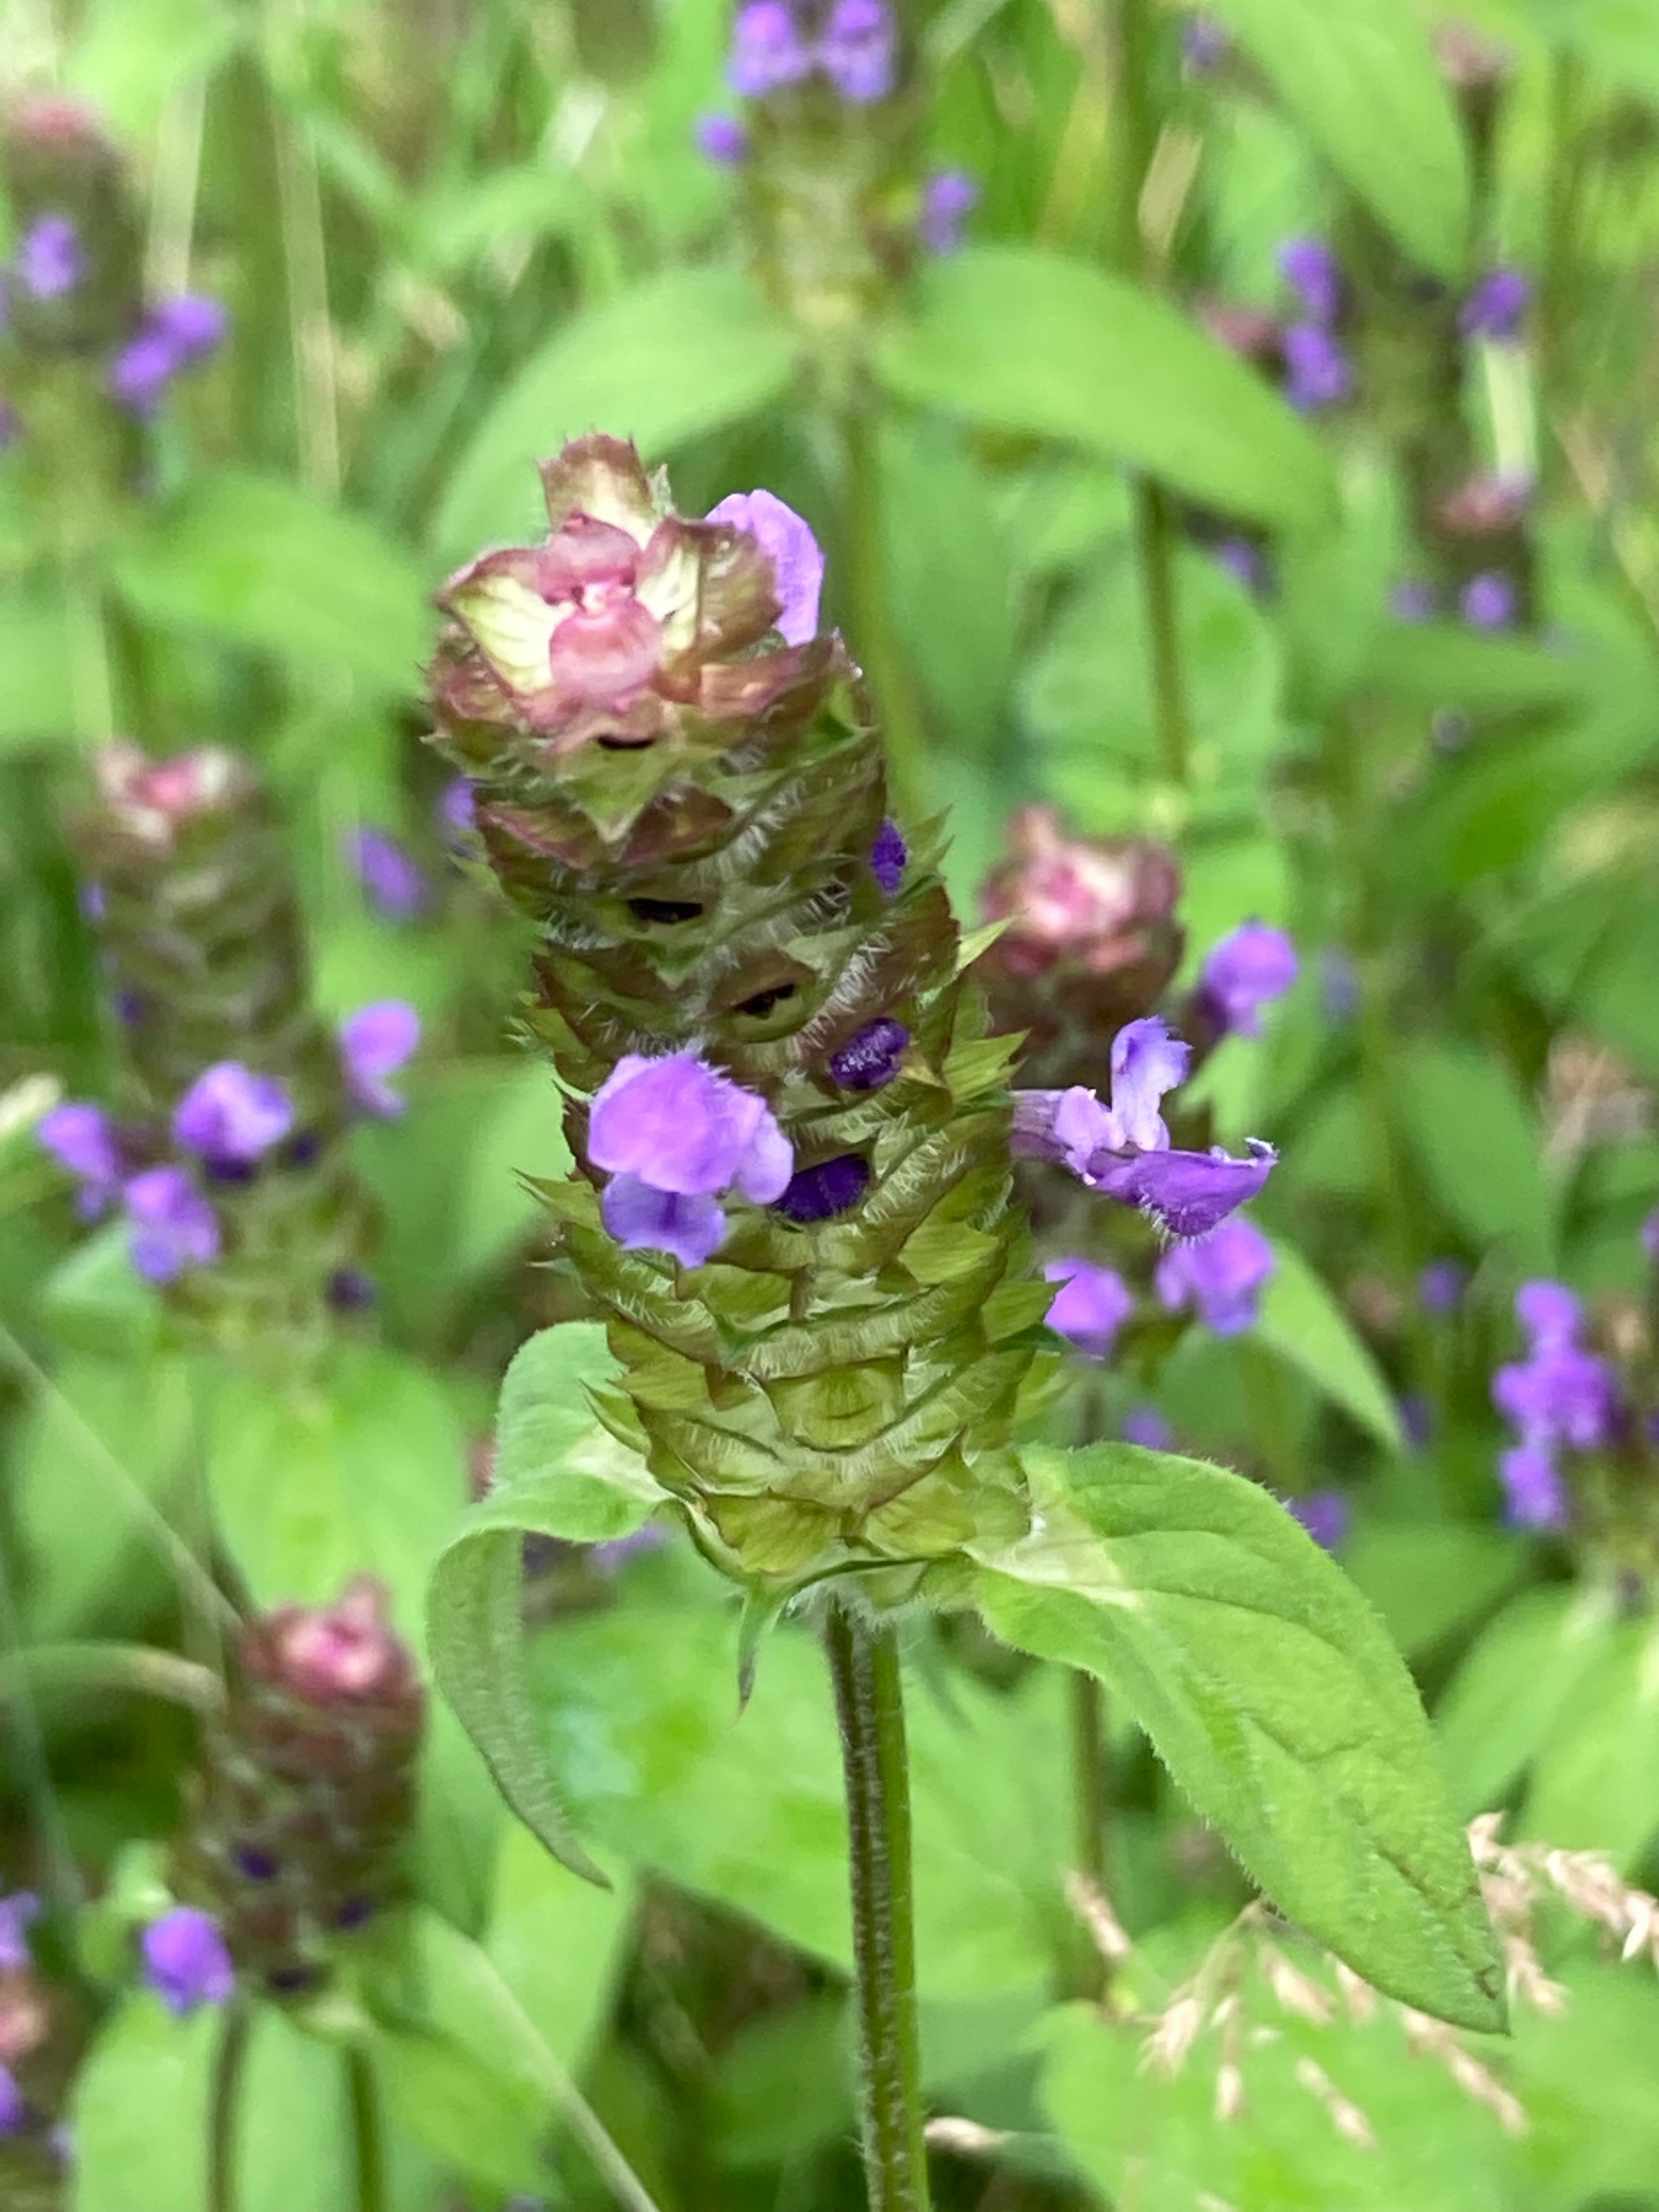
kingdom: Plantae
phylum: Tracheophyta
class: Magnoliopsida
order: Lamiales
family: Lamiaceae
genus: Prunella
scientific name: Prunella vulgaris
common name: Almindelig brunelle
